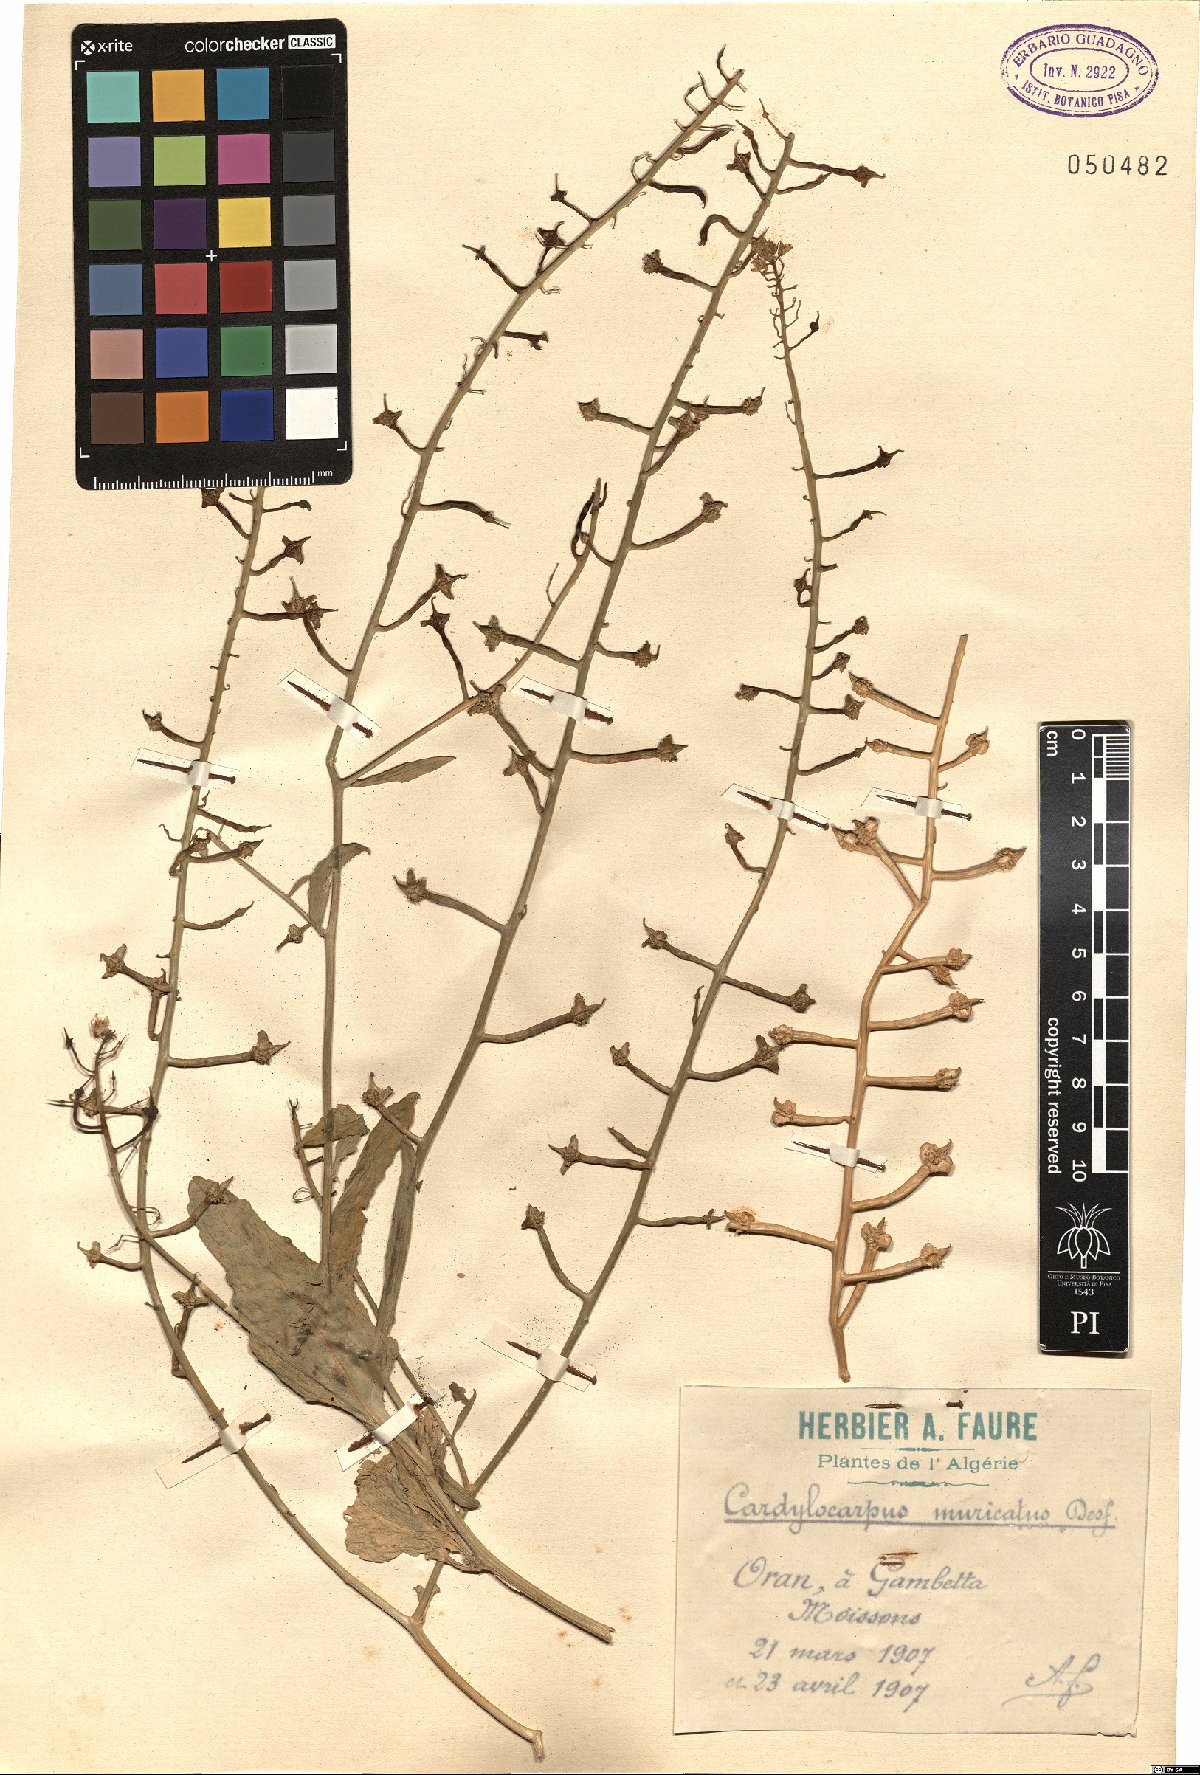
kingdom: Plantae
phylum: Tracheophyta
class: Magnoliopsida
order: Brassicales
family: Brassicaceae
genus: Cordylocarpus
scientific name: Cordylocarpus muricatus
